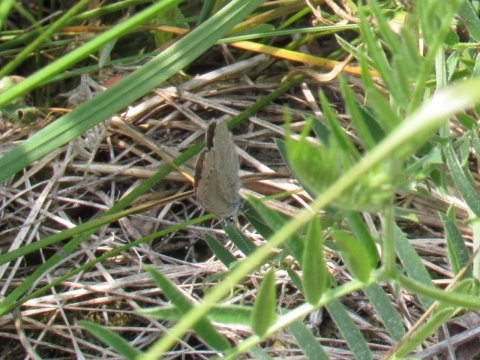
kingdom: Animalia
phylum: Arthropoda
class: Insecta
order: Lepidoptera
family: Lycaenidae
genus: Glaucopsyche
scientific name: Glaucopsyche lygdamus
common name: Silvery Blue
